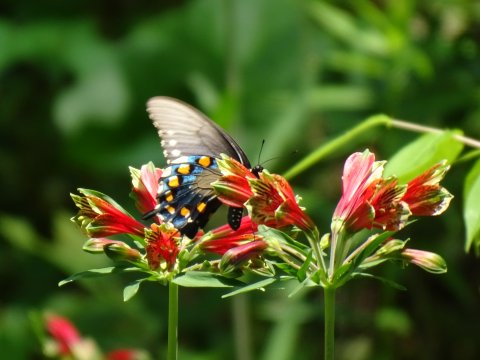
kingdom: Animalia
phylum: Arthropoda
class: Insecta
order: Lepidoptera
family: Papilionidae
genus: Battus
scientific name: Battus philenor
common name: Pipevine Swallowtail
